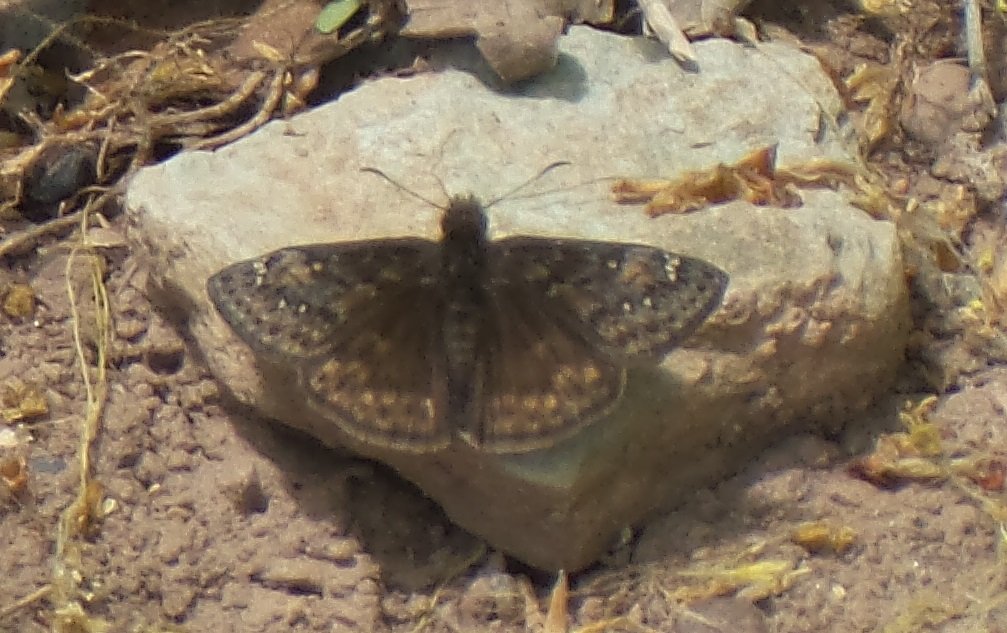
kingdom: Animalia
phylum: Arthropoda
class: Insecta
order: Lepidoptera
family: Hesperiidae
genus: Gesta
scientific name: Gesta
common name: Juvenal's Duskywing
